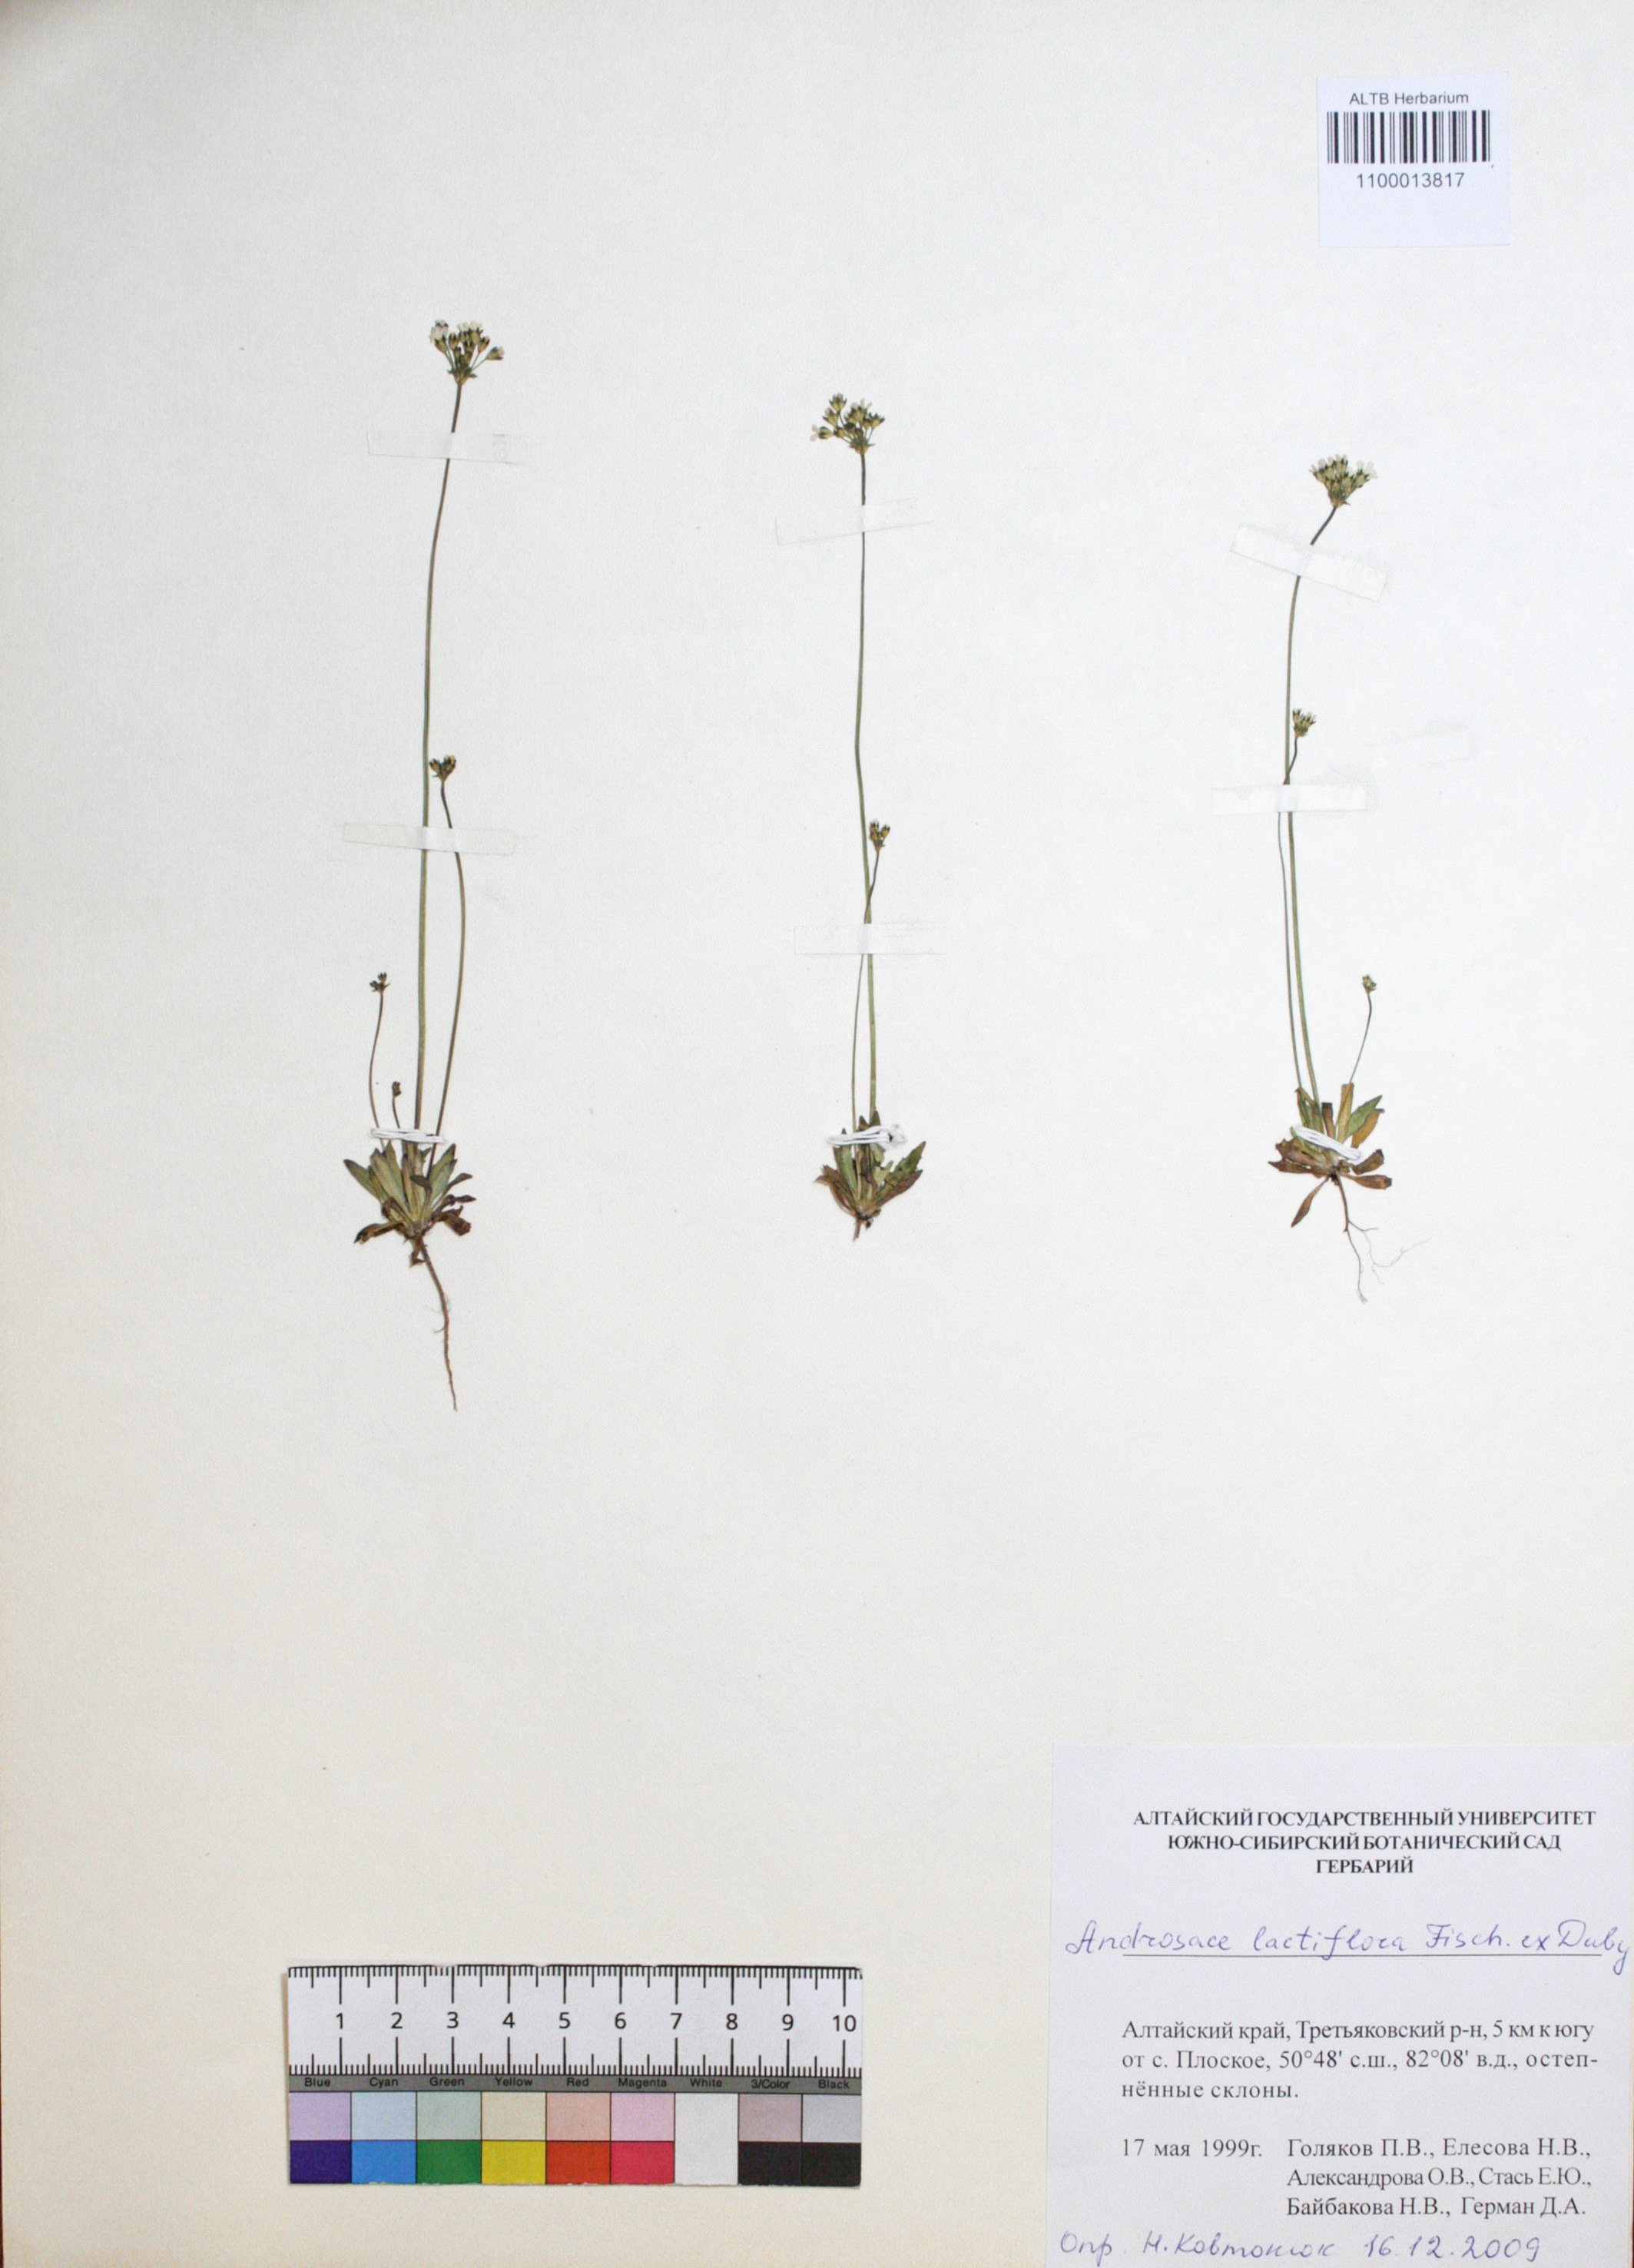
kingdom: Plantae
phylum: Tracheophyta
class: Magnoliopsida
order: Ericales
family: Primulaceae
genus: Androsace
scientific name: Androsace lactiflora
